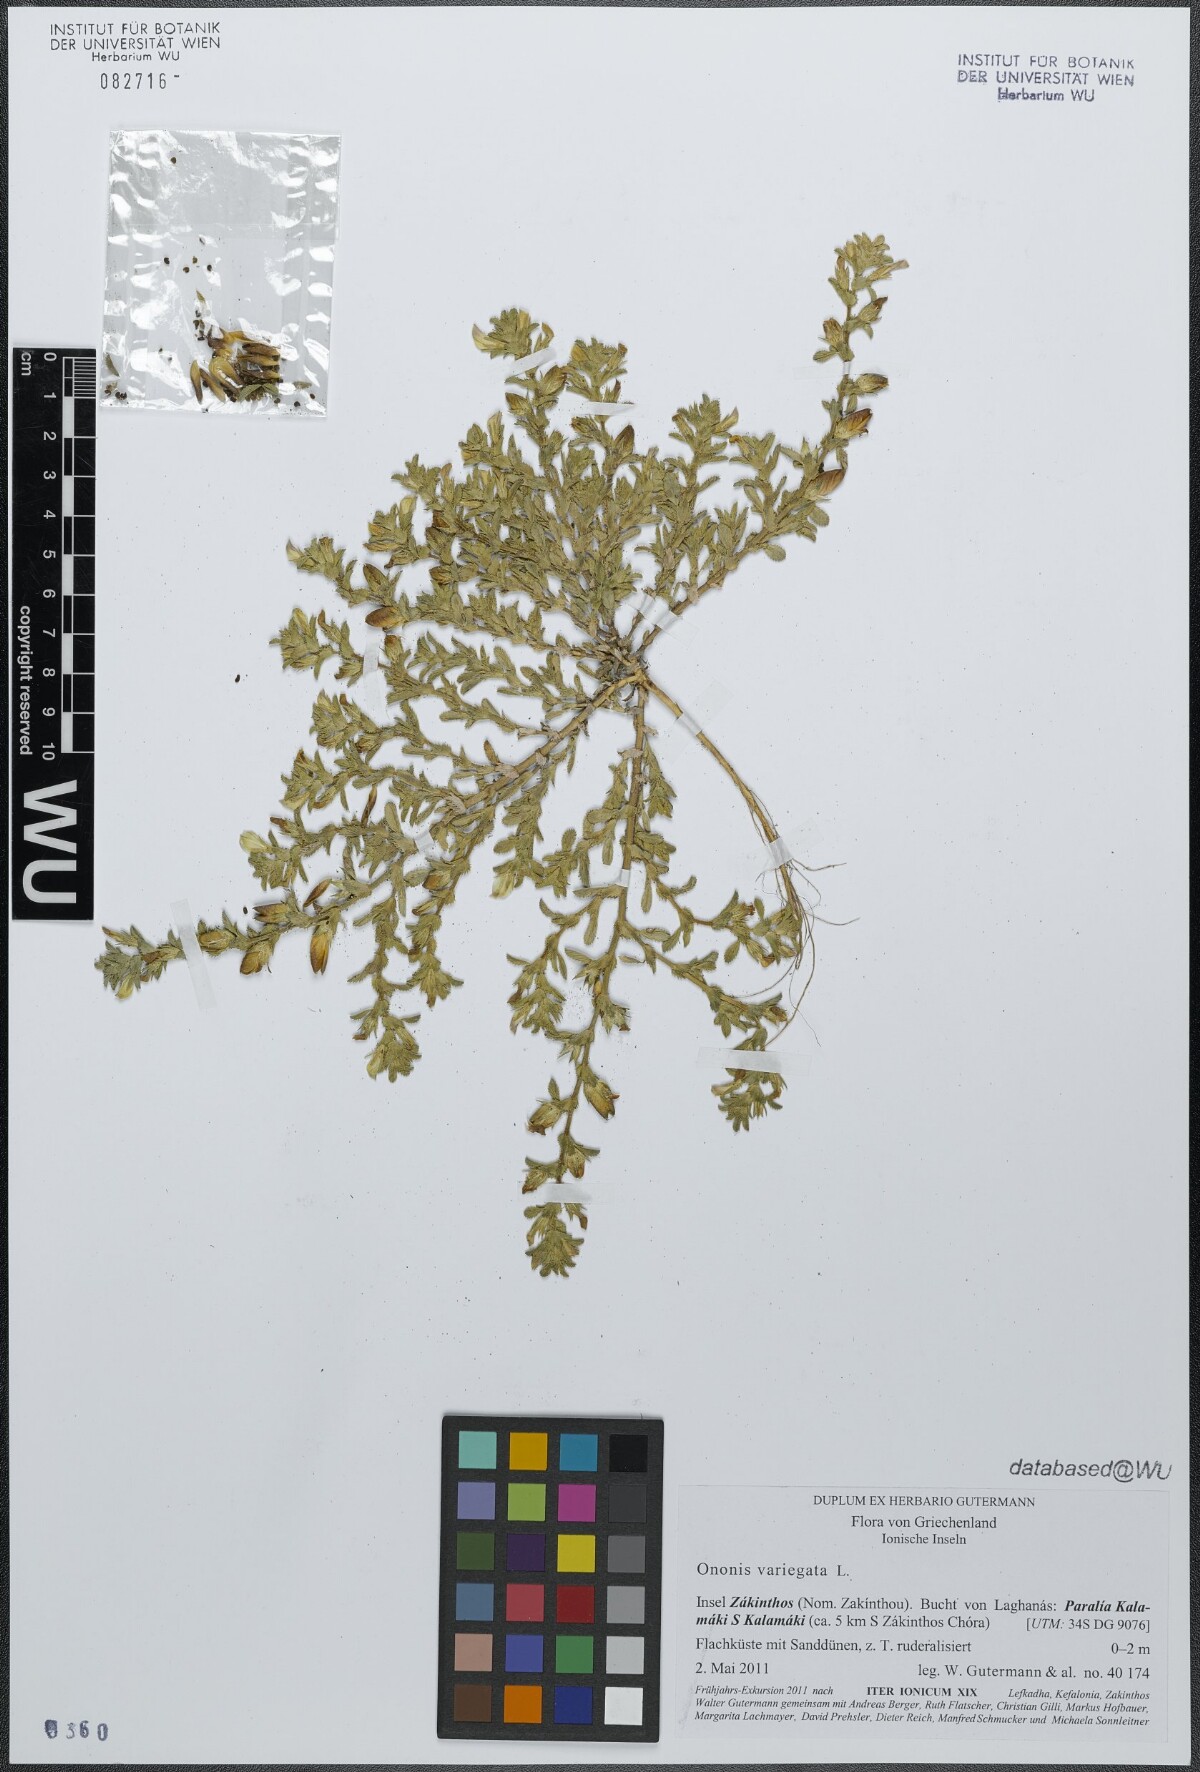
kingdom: Plantae
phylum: Tracheophyta
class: Magnoliopsida
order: Fabales
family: Fabaceae
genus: Ononis
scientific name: Ononis variegata
